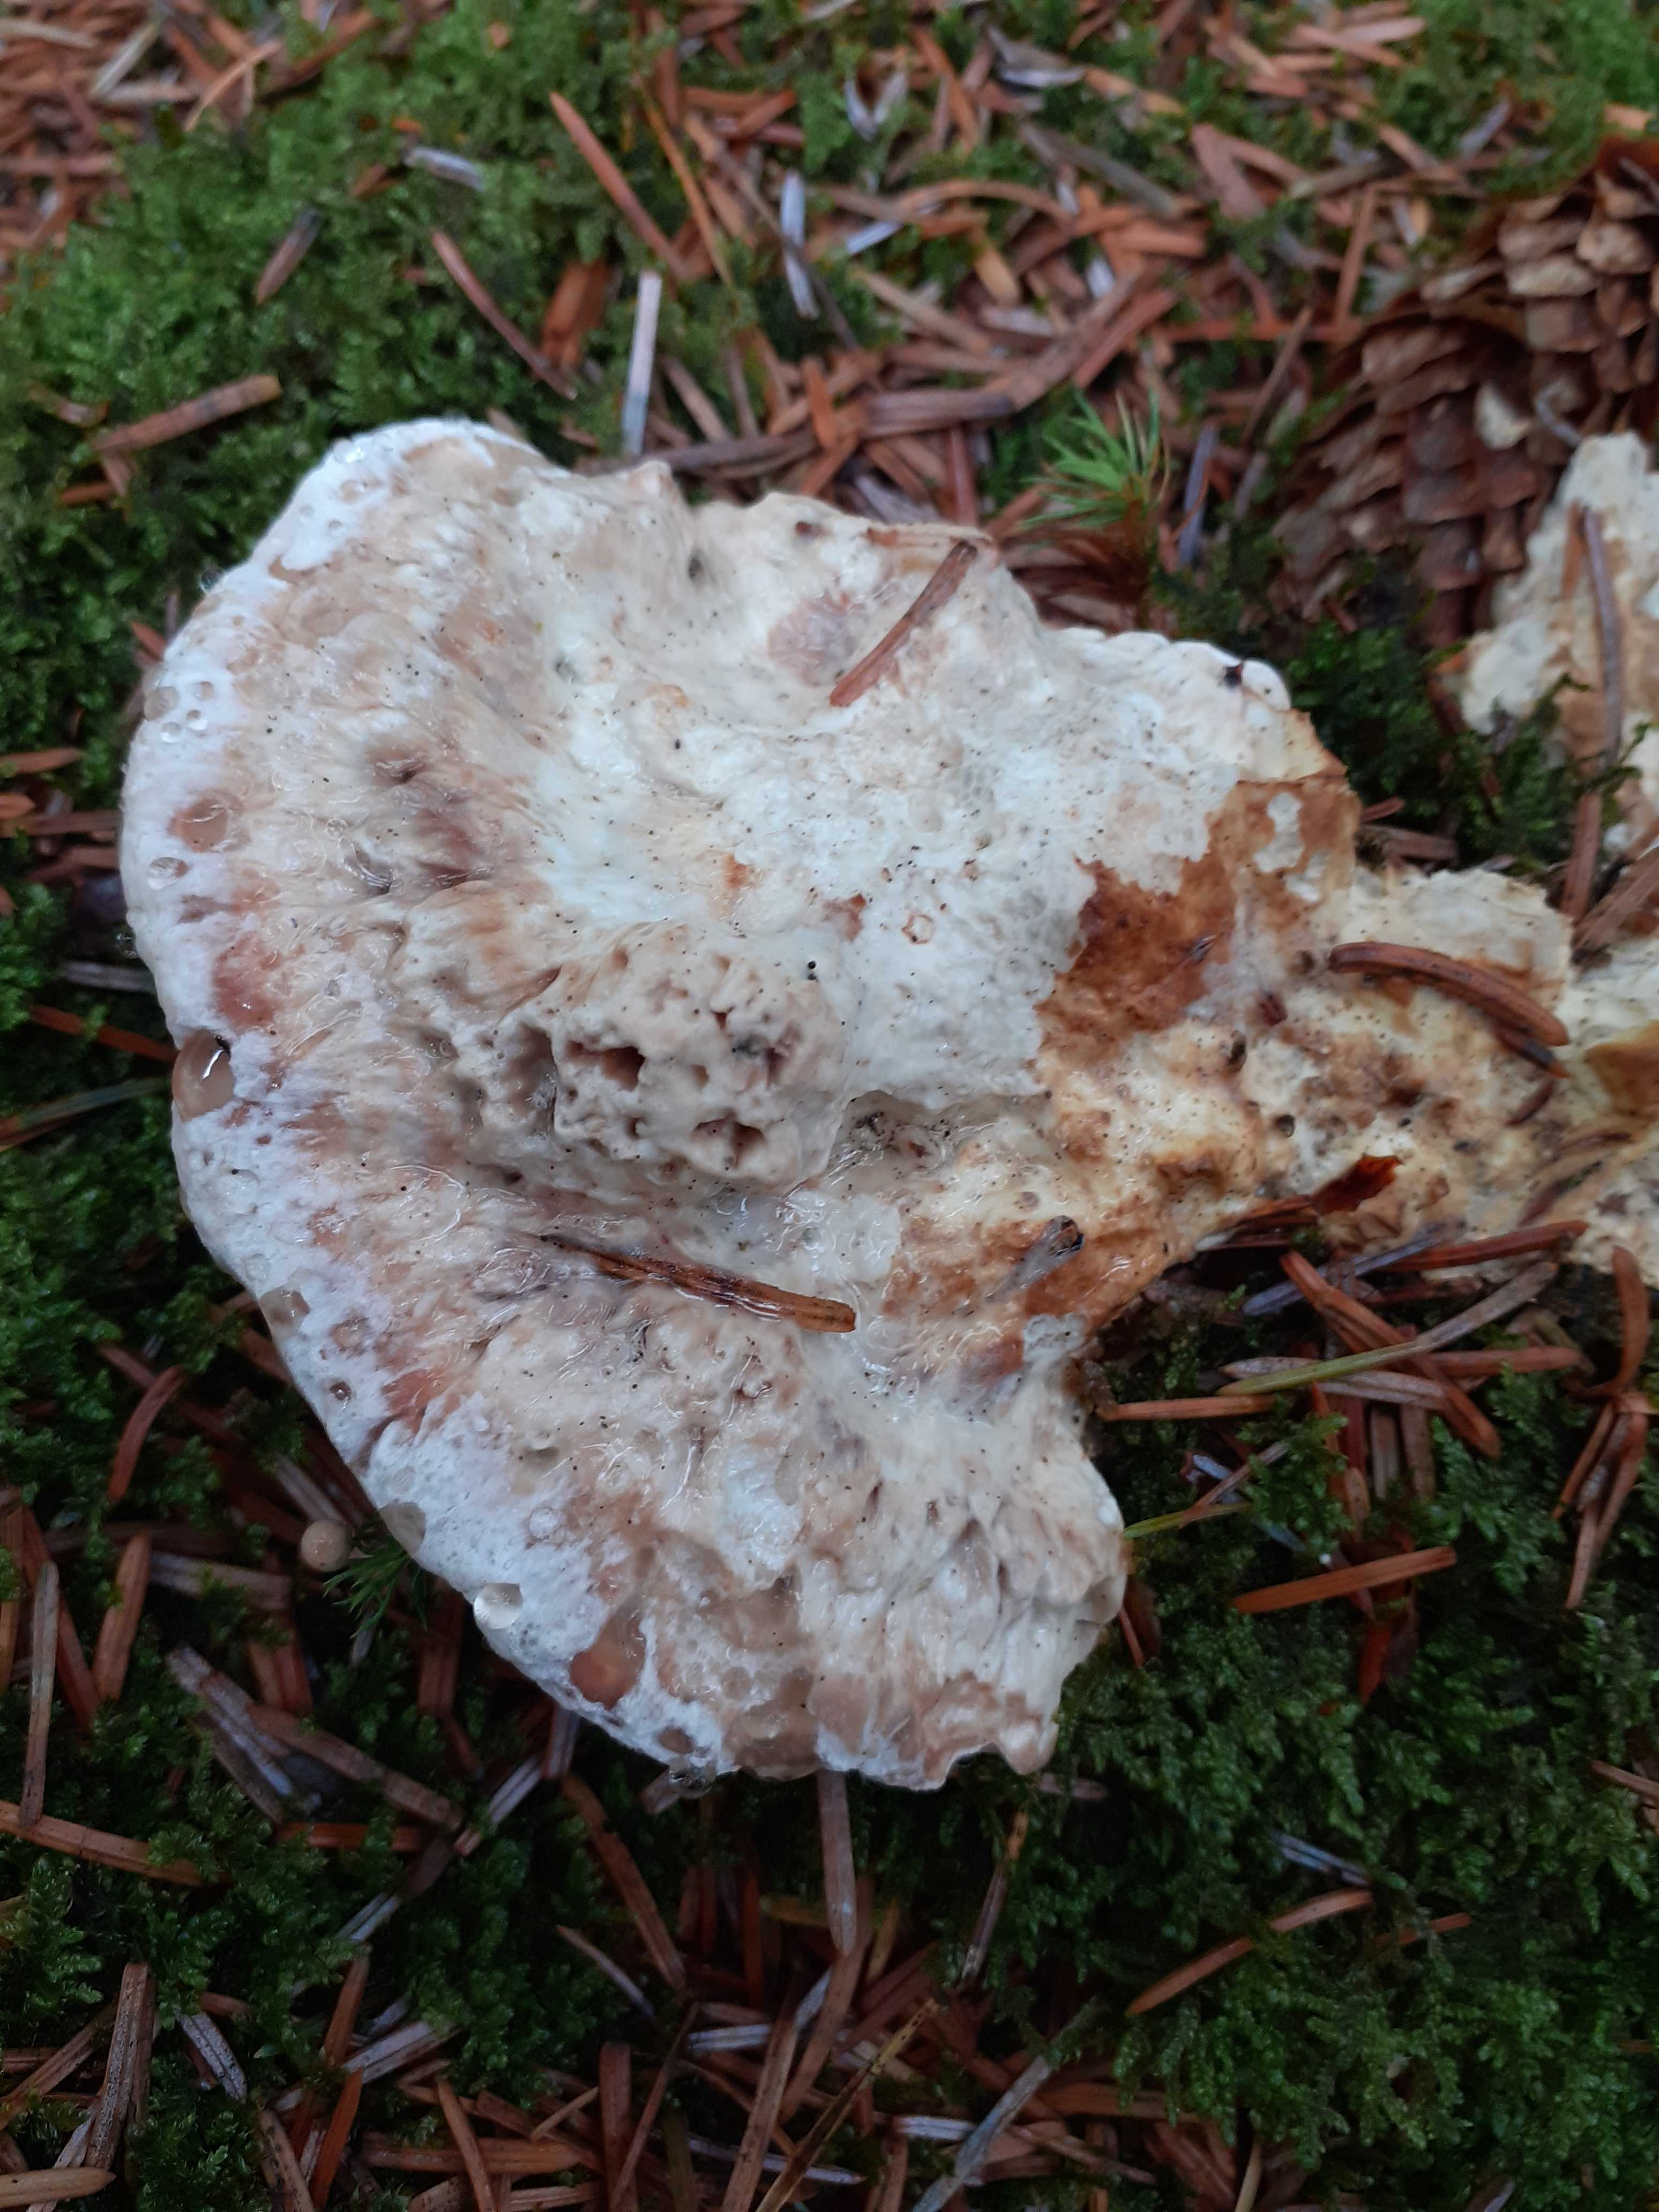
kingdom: Fungi
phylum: Basidiomycota
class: Agaricomycetes
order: Polyporales
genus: Calcipostia
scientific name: Calcipostia guttulata
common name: dråbe-kødporesvamp
